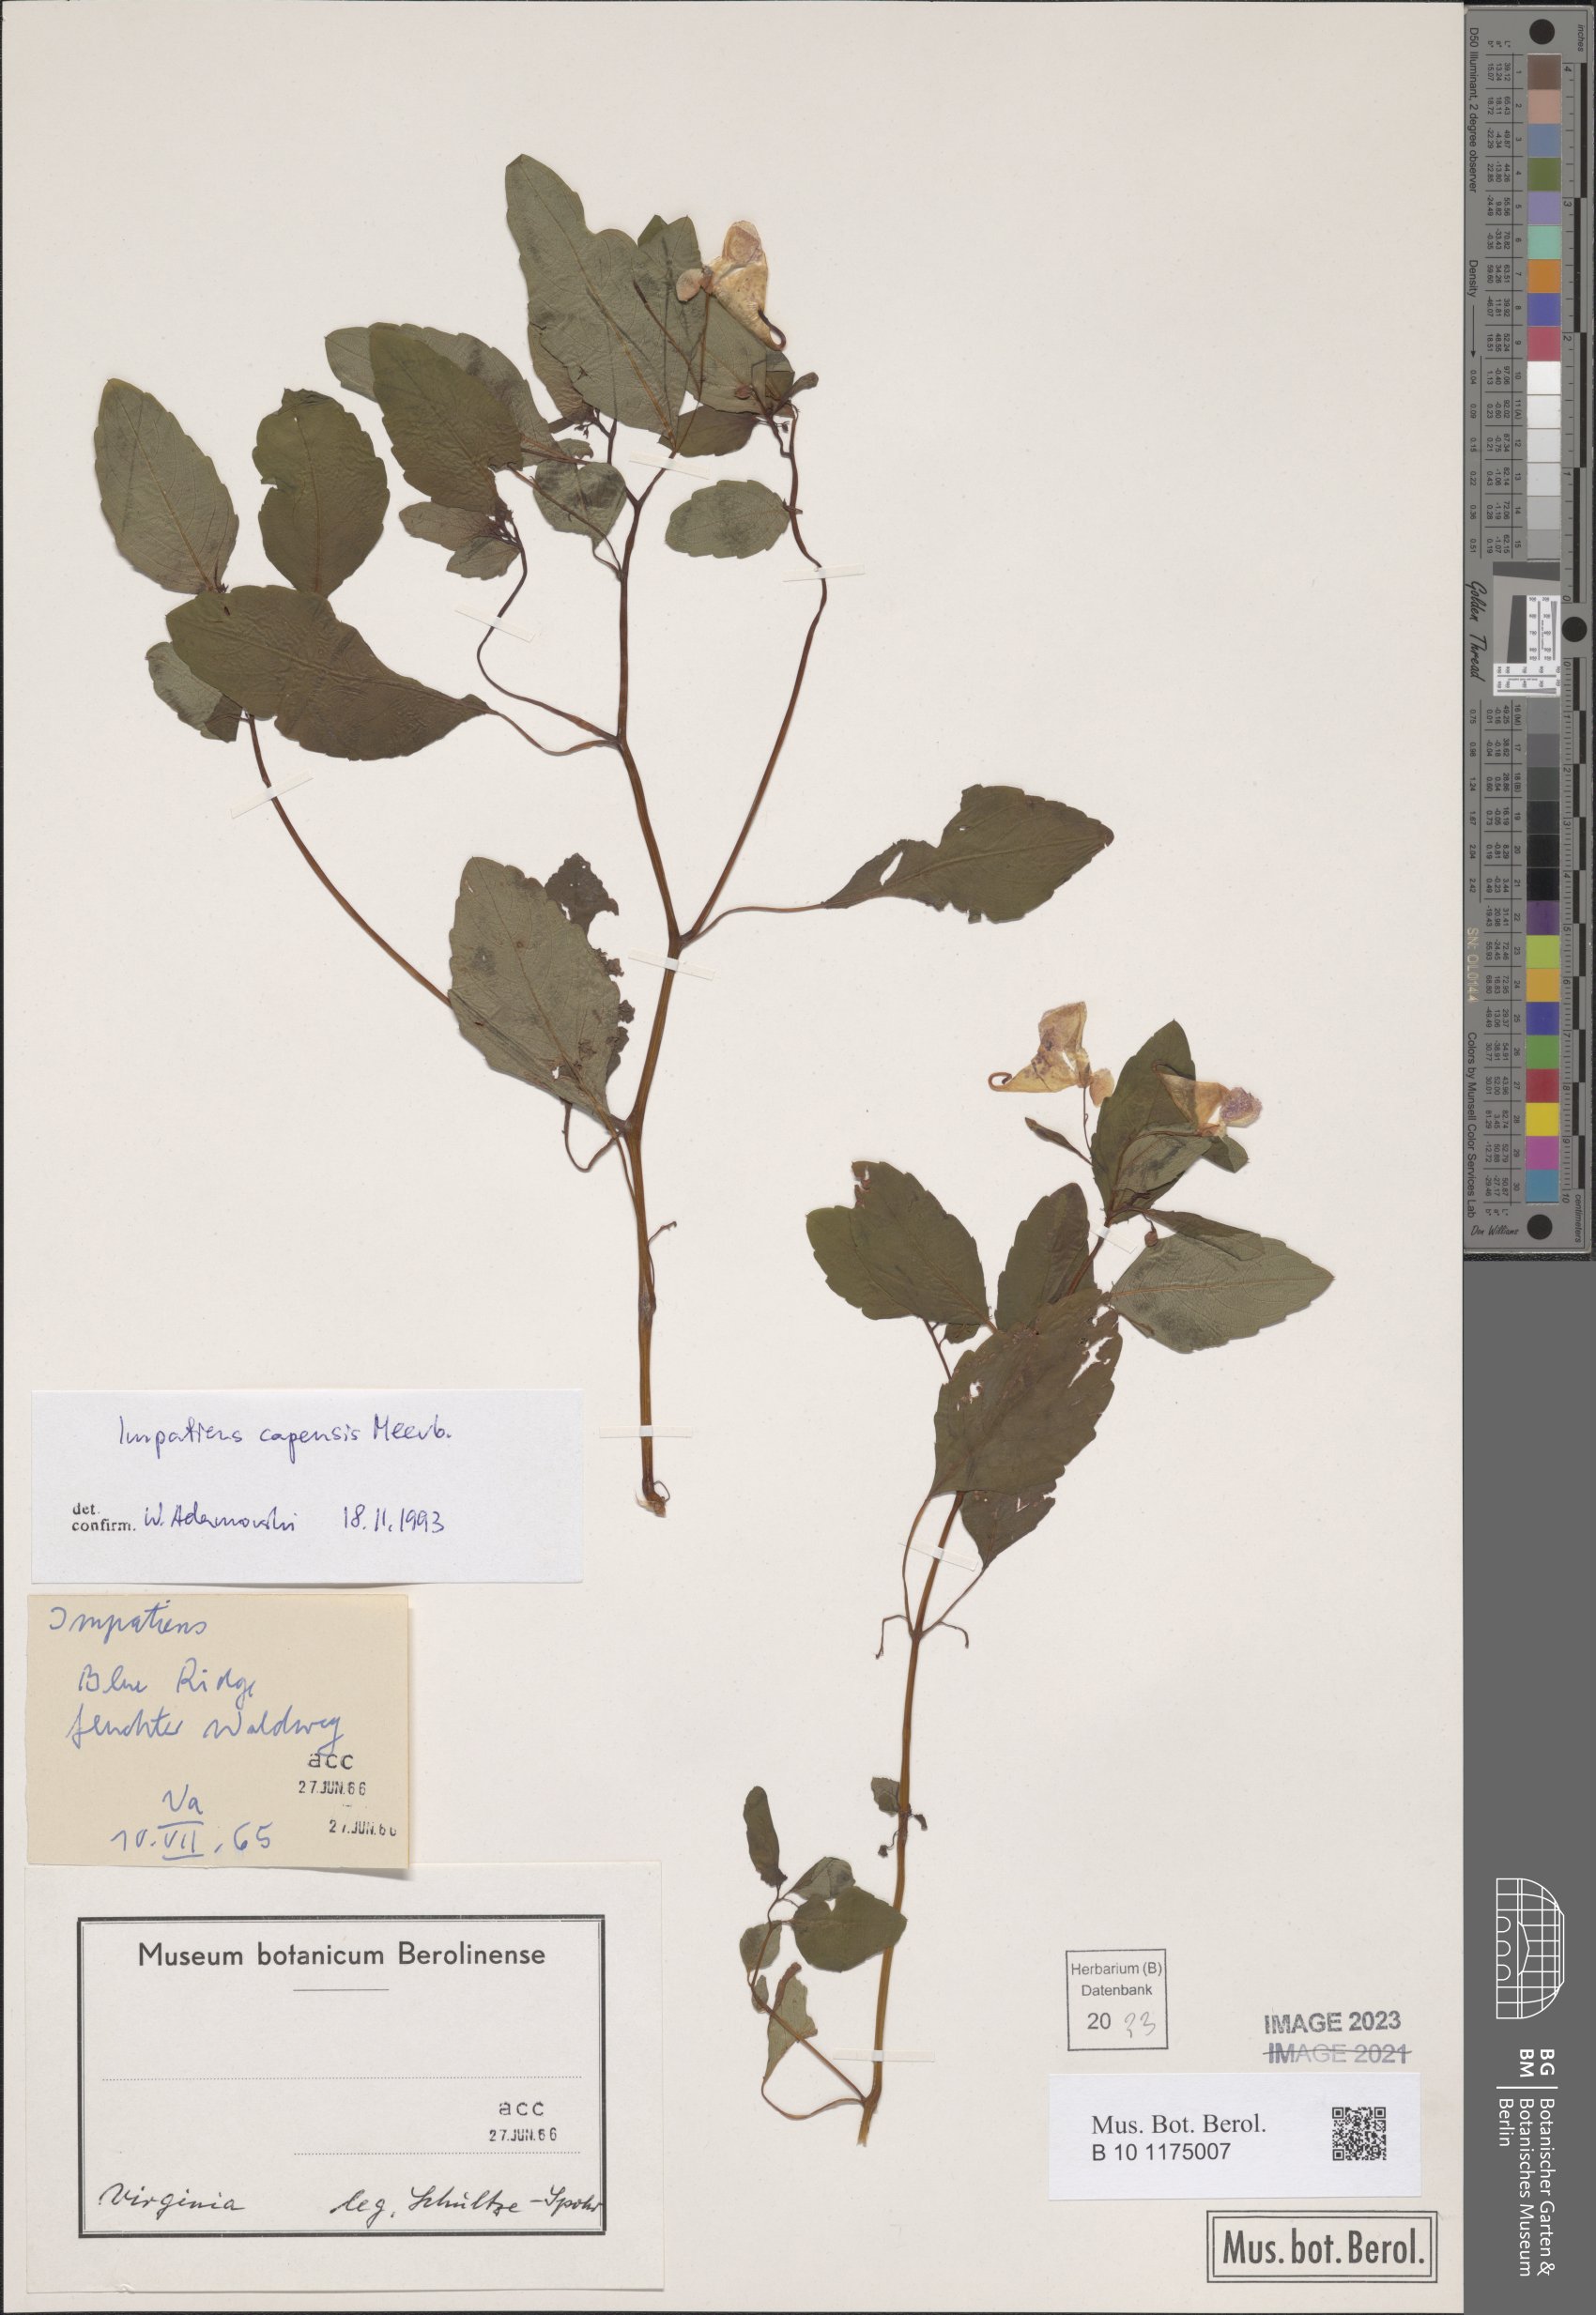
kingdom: Plantae
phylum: Tracheophyta
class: Magnoliopsida
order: Ericales
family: Balsaminaceae
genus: Impatiens
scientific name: Impatiens capensis
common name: Orange balsam
